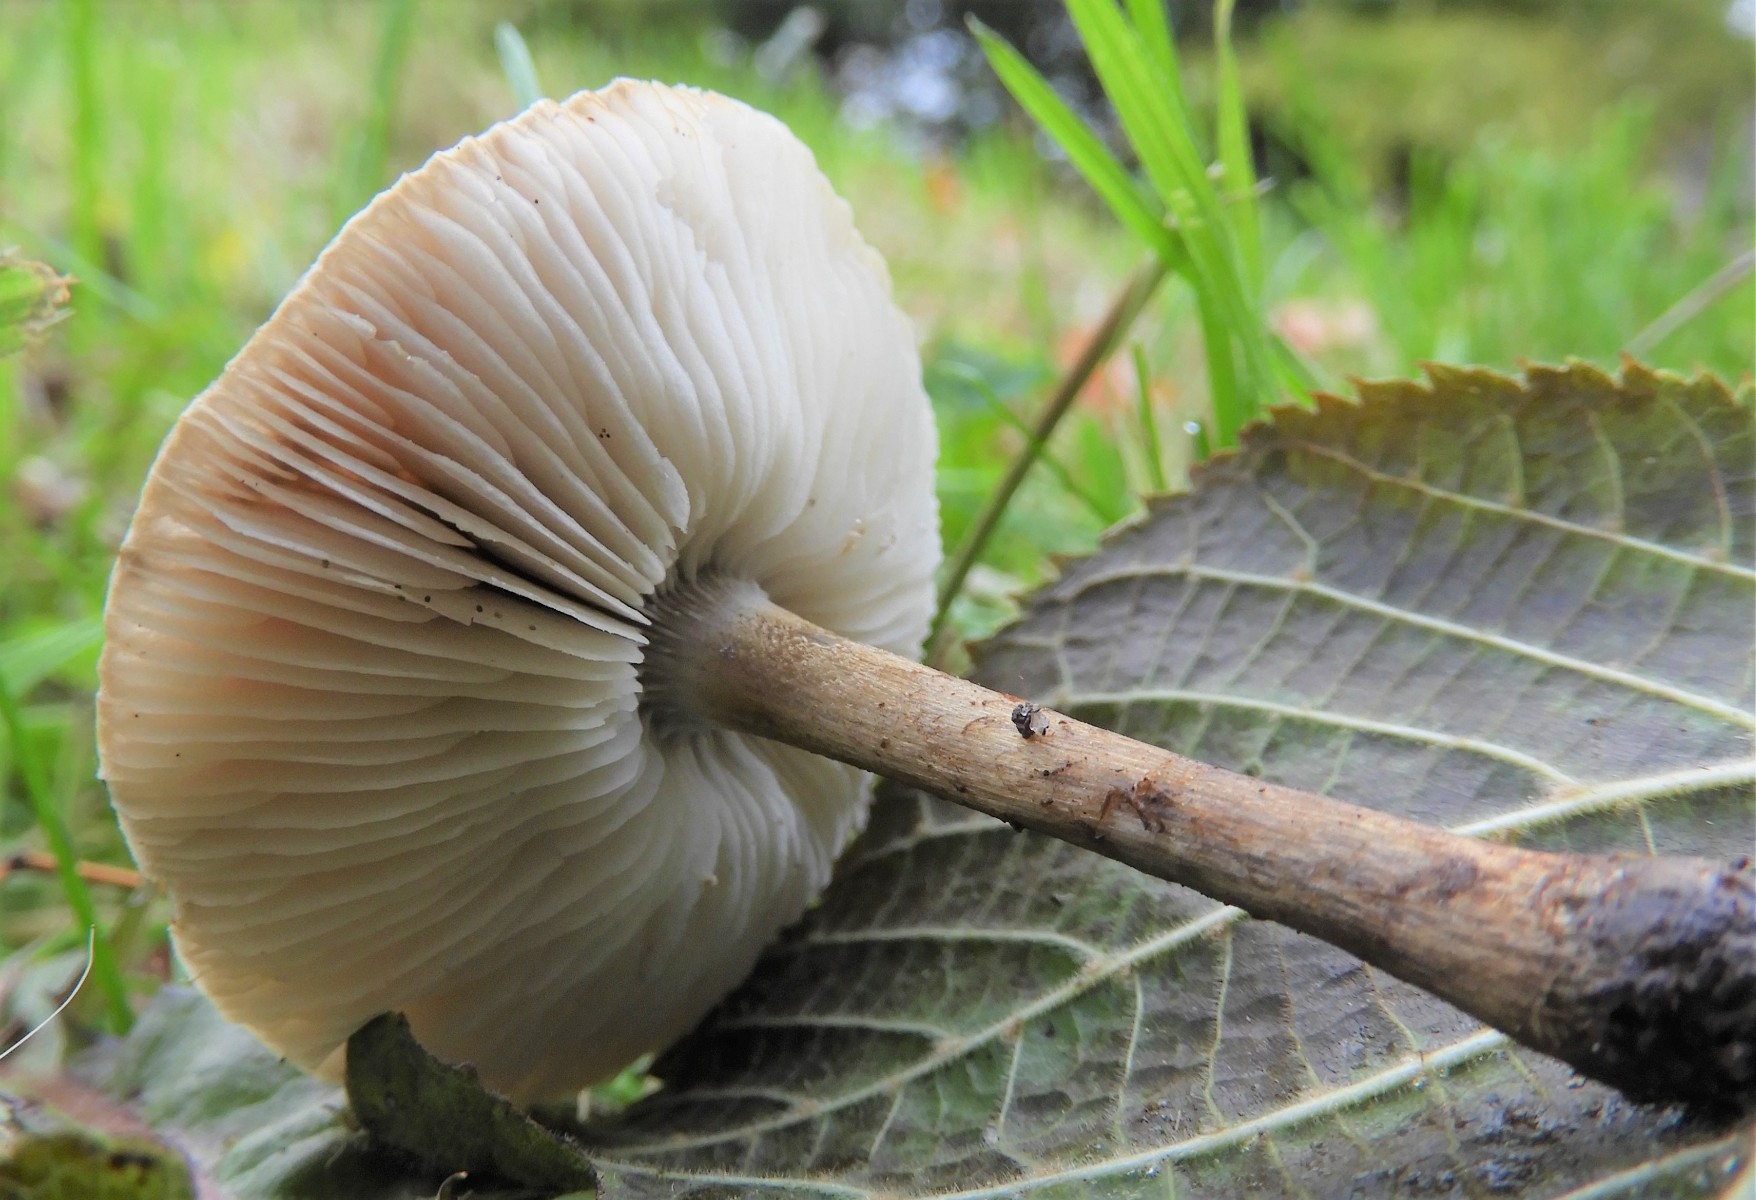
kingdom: Fungi
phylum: Basidiomycota
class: Agaricomycetes
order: Agaricales
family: Tricholomataceae
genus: Melanoleuca
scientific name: Melanoleuca
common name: munkehat
